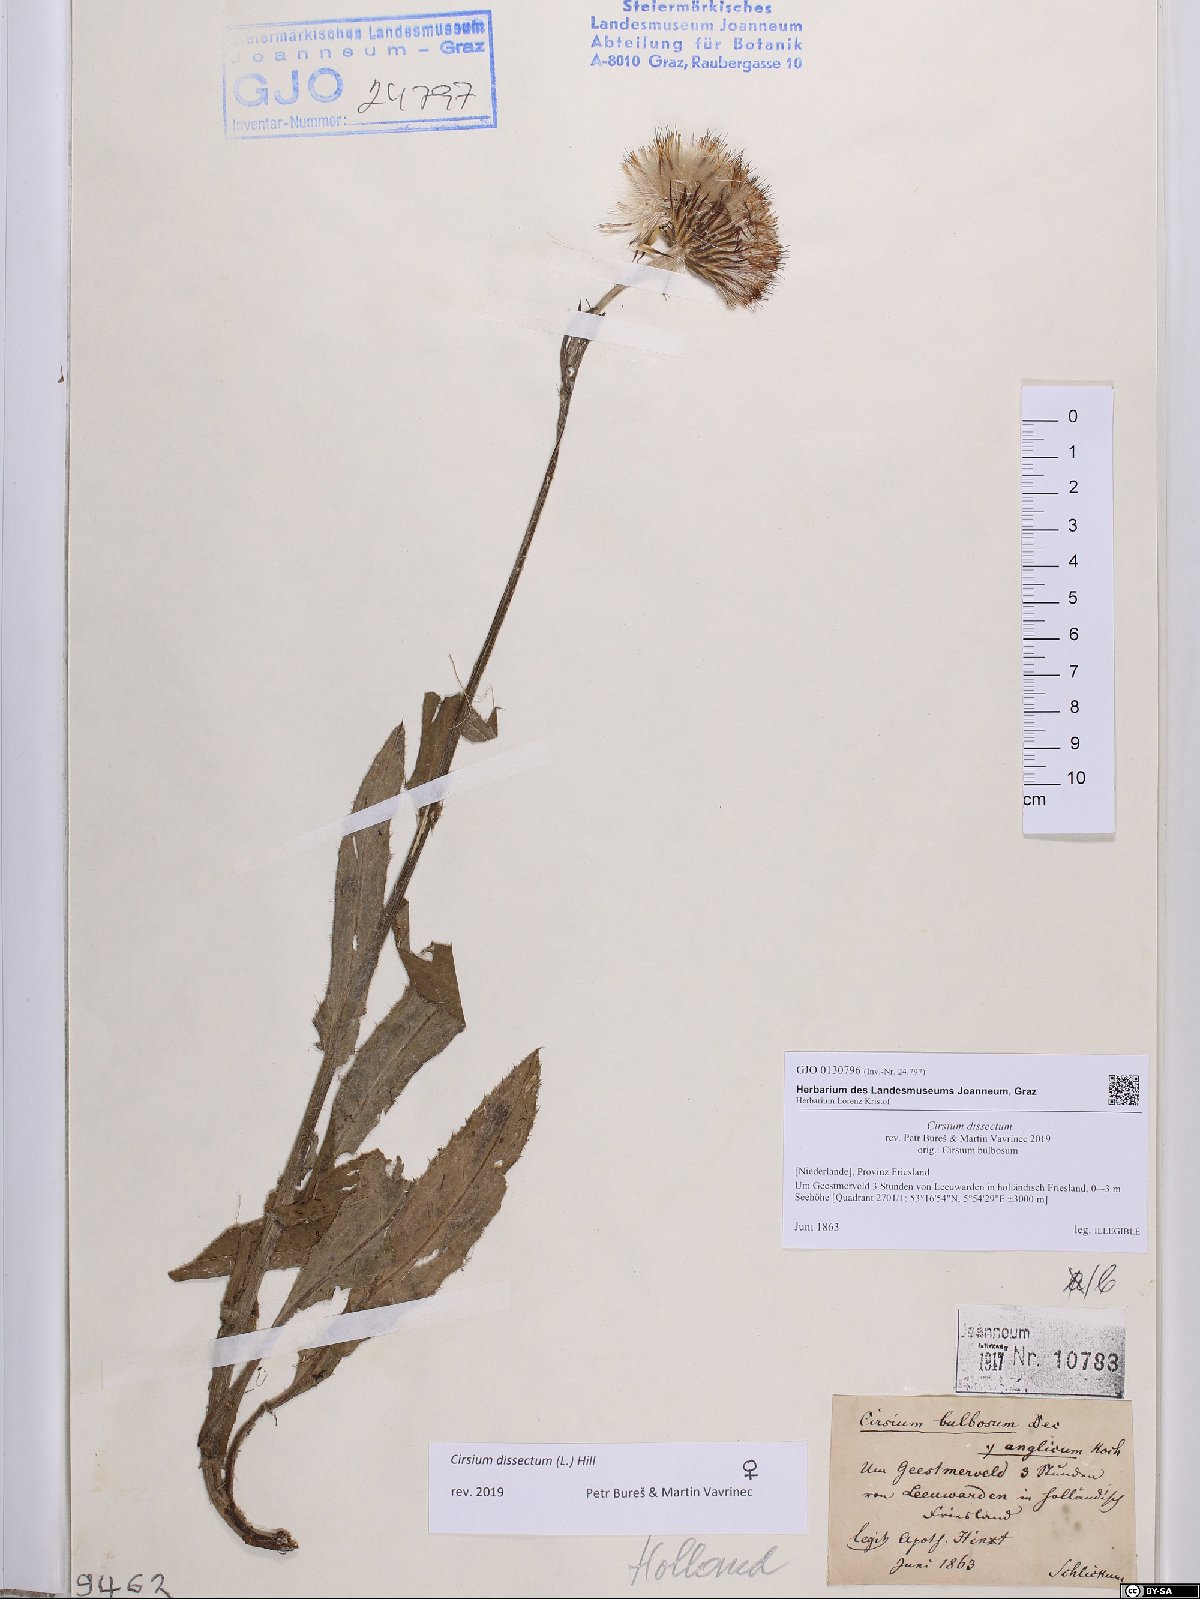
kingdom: Plantae
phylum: Tracheophyta
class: Magnoliopsida
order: Asterales
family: Asteraceae
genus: Cirsium
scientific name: Cirsium dissectum
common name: Meadow thistle
